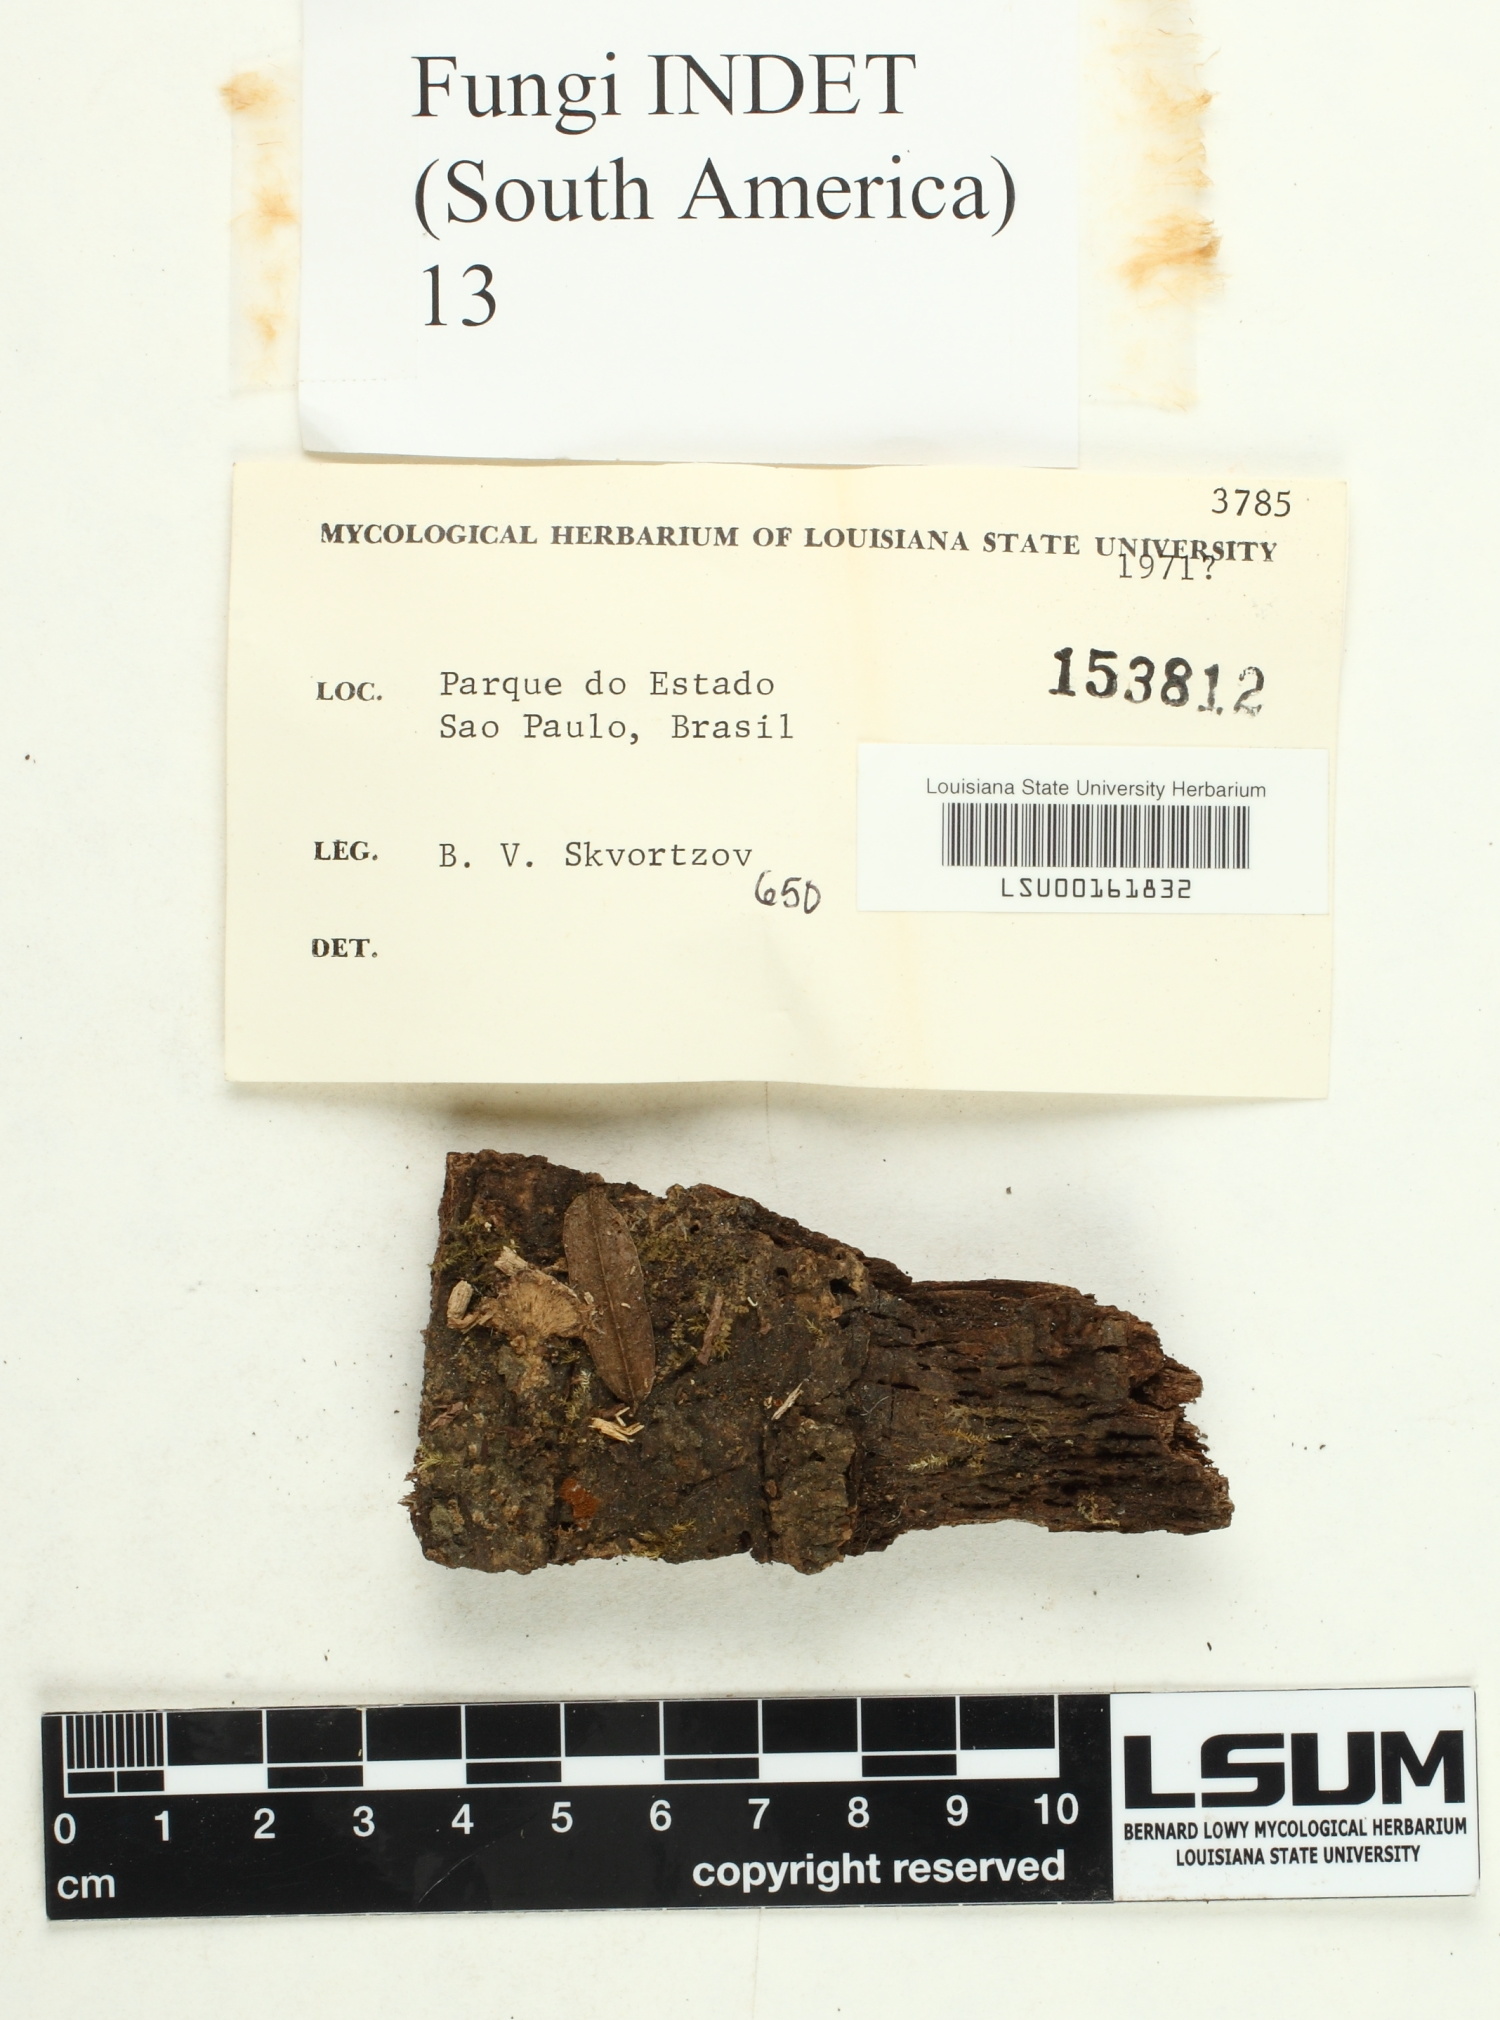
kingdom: Fungi
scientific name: Fungi
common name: Fungi
